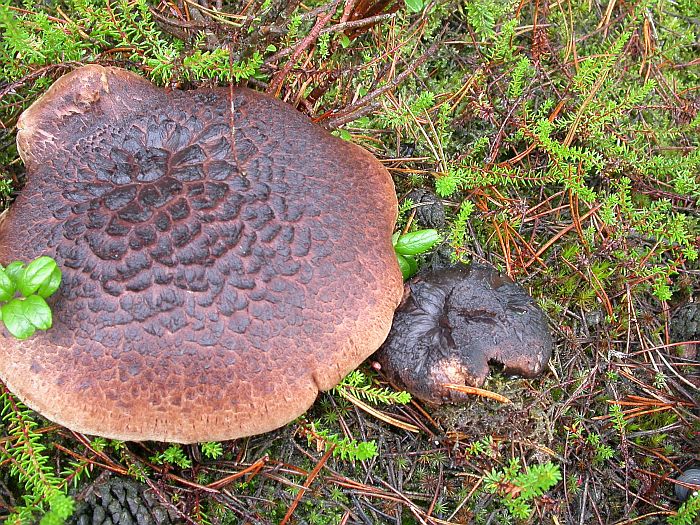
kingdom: Fungi
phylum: Basidiomycota
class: Agaricomycetes
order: Thelephorales
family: Bankeraceae
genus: Sarcodon
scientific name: Sarcodon squamosus
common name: småskællet kødpigsvamp
